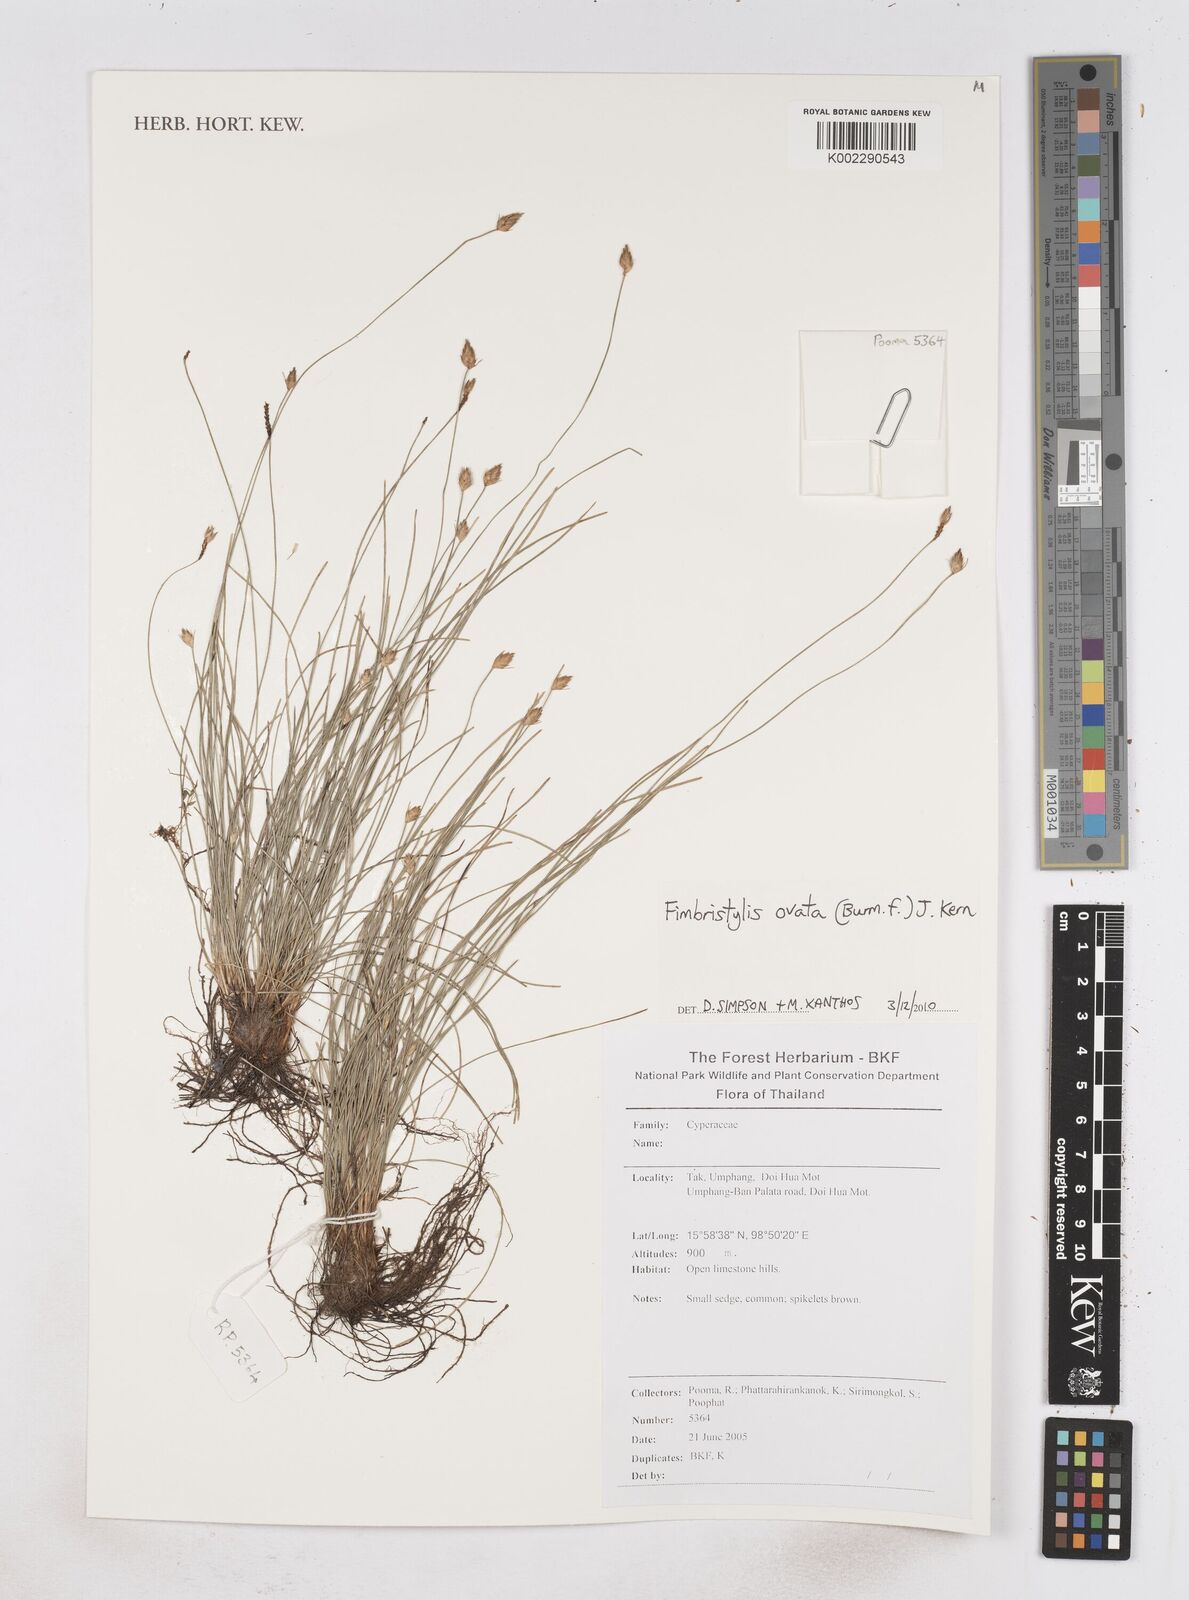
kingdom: Plantae
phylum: Tracheophyta
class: Liliopsida
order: Poales
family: Cyperaceae
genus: Abildgaardia
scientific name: Abildgaardia ovata
